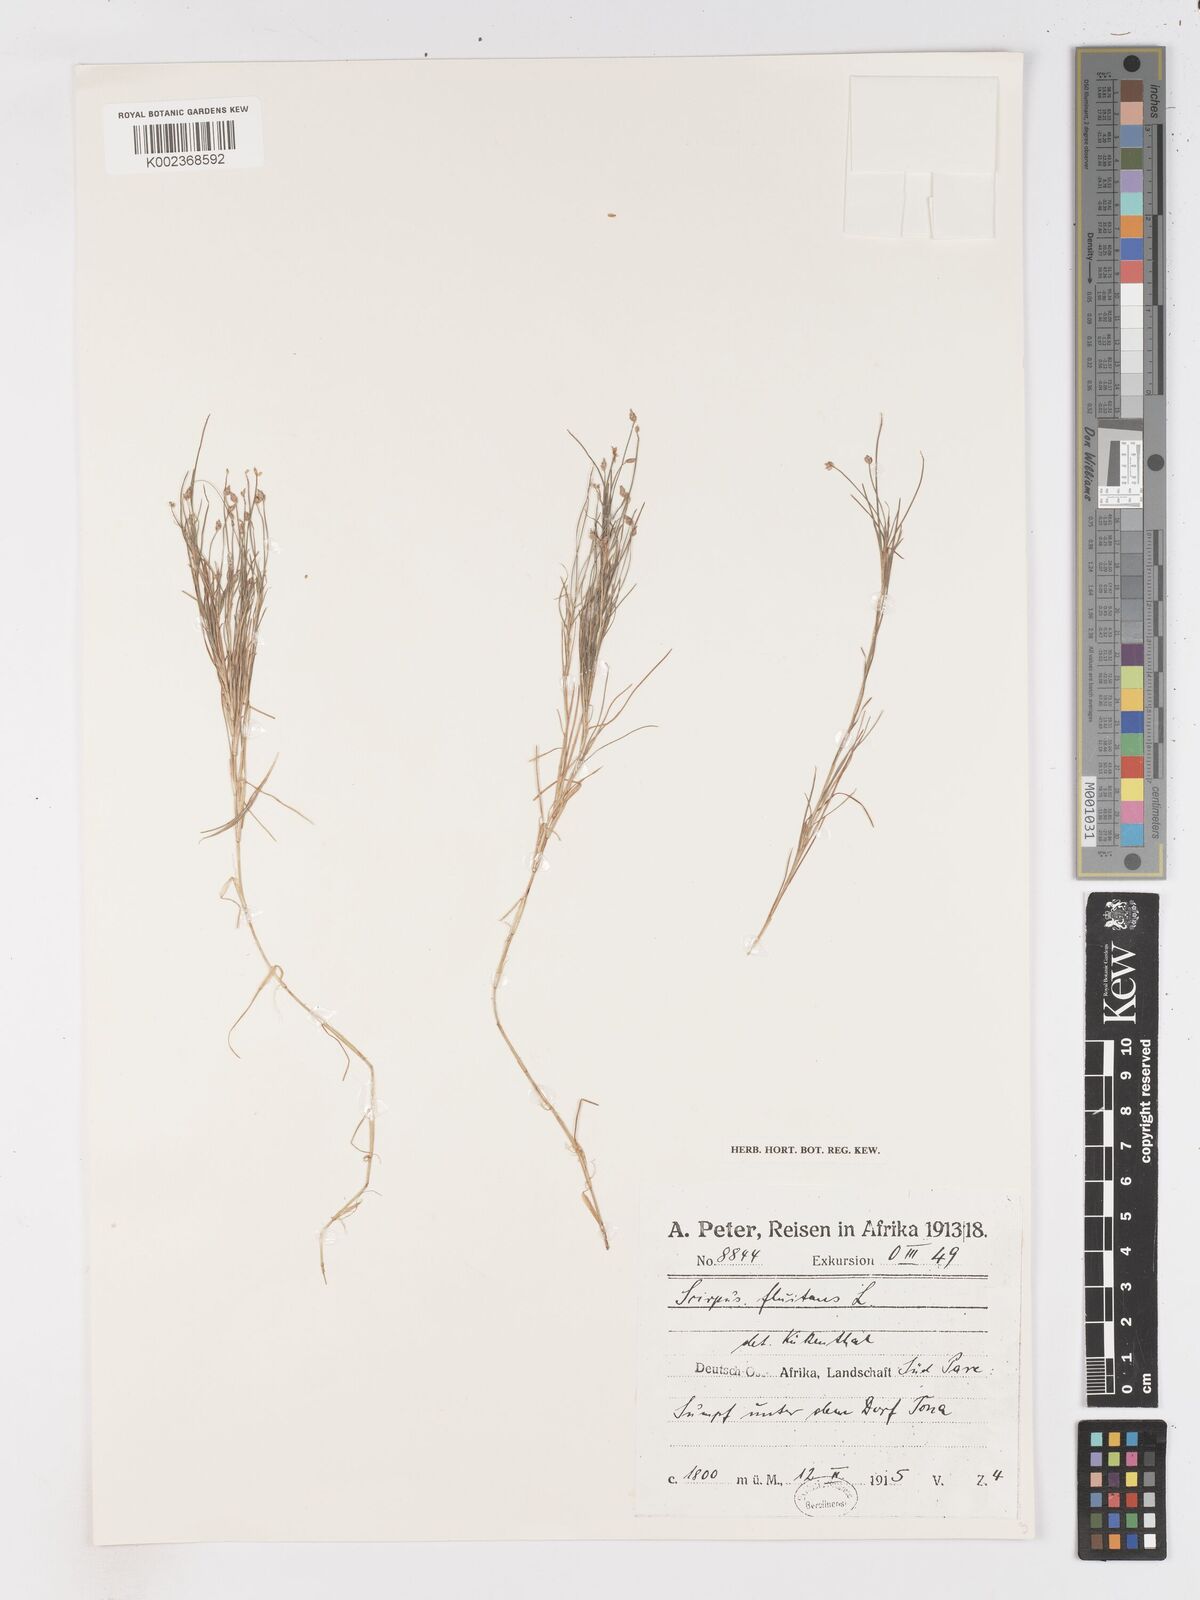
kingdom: Plantae
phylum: Tracheophyta
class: Liliopsida
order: Poales
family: Cyperaceae
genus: Isolepis
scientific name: Isolepis fluitans
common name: Floating club-rush
